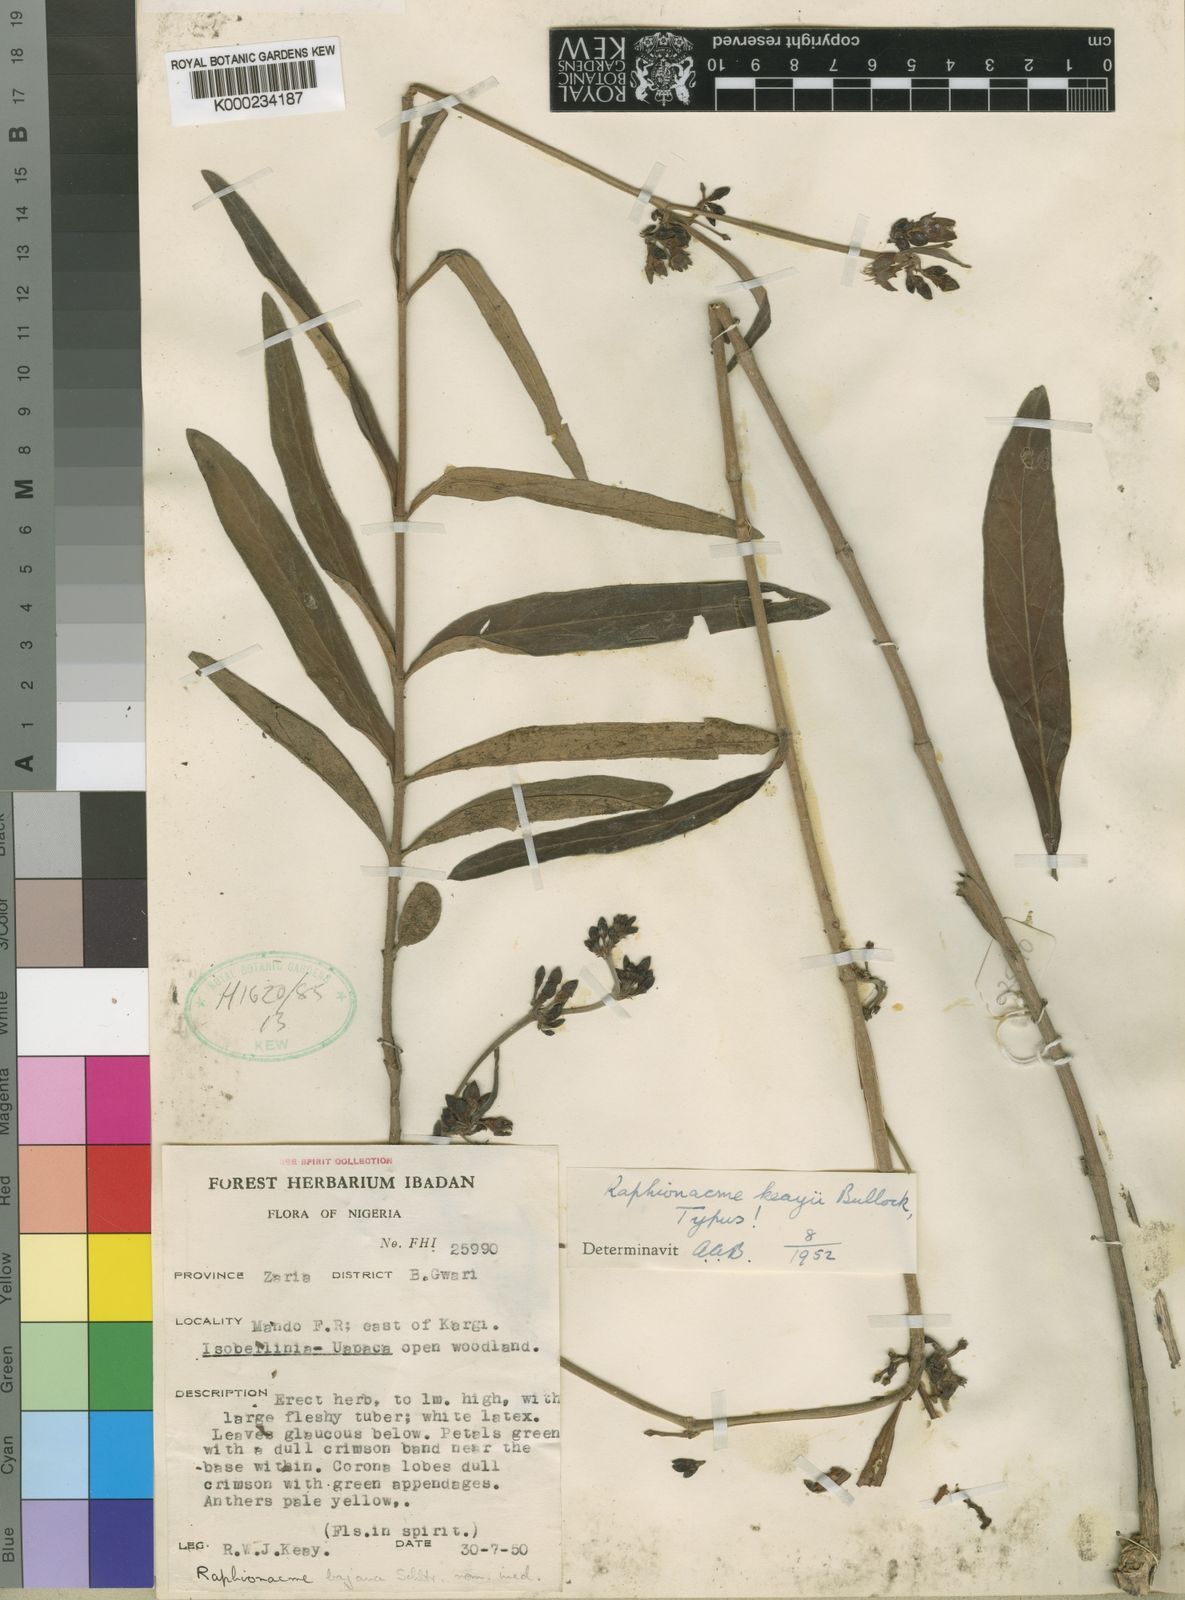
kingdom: Plantae
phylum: Tracheophyta
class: Magnoliopsida
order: Gentianales
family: Apocynaceae
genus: Raphionacme
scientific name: Raphionacme keayi
